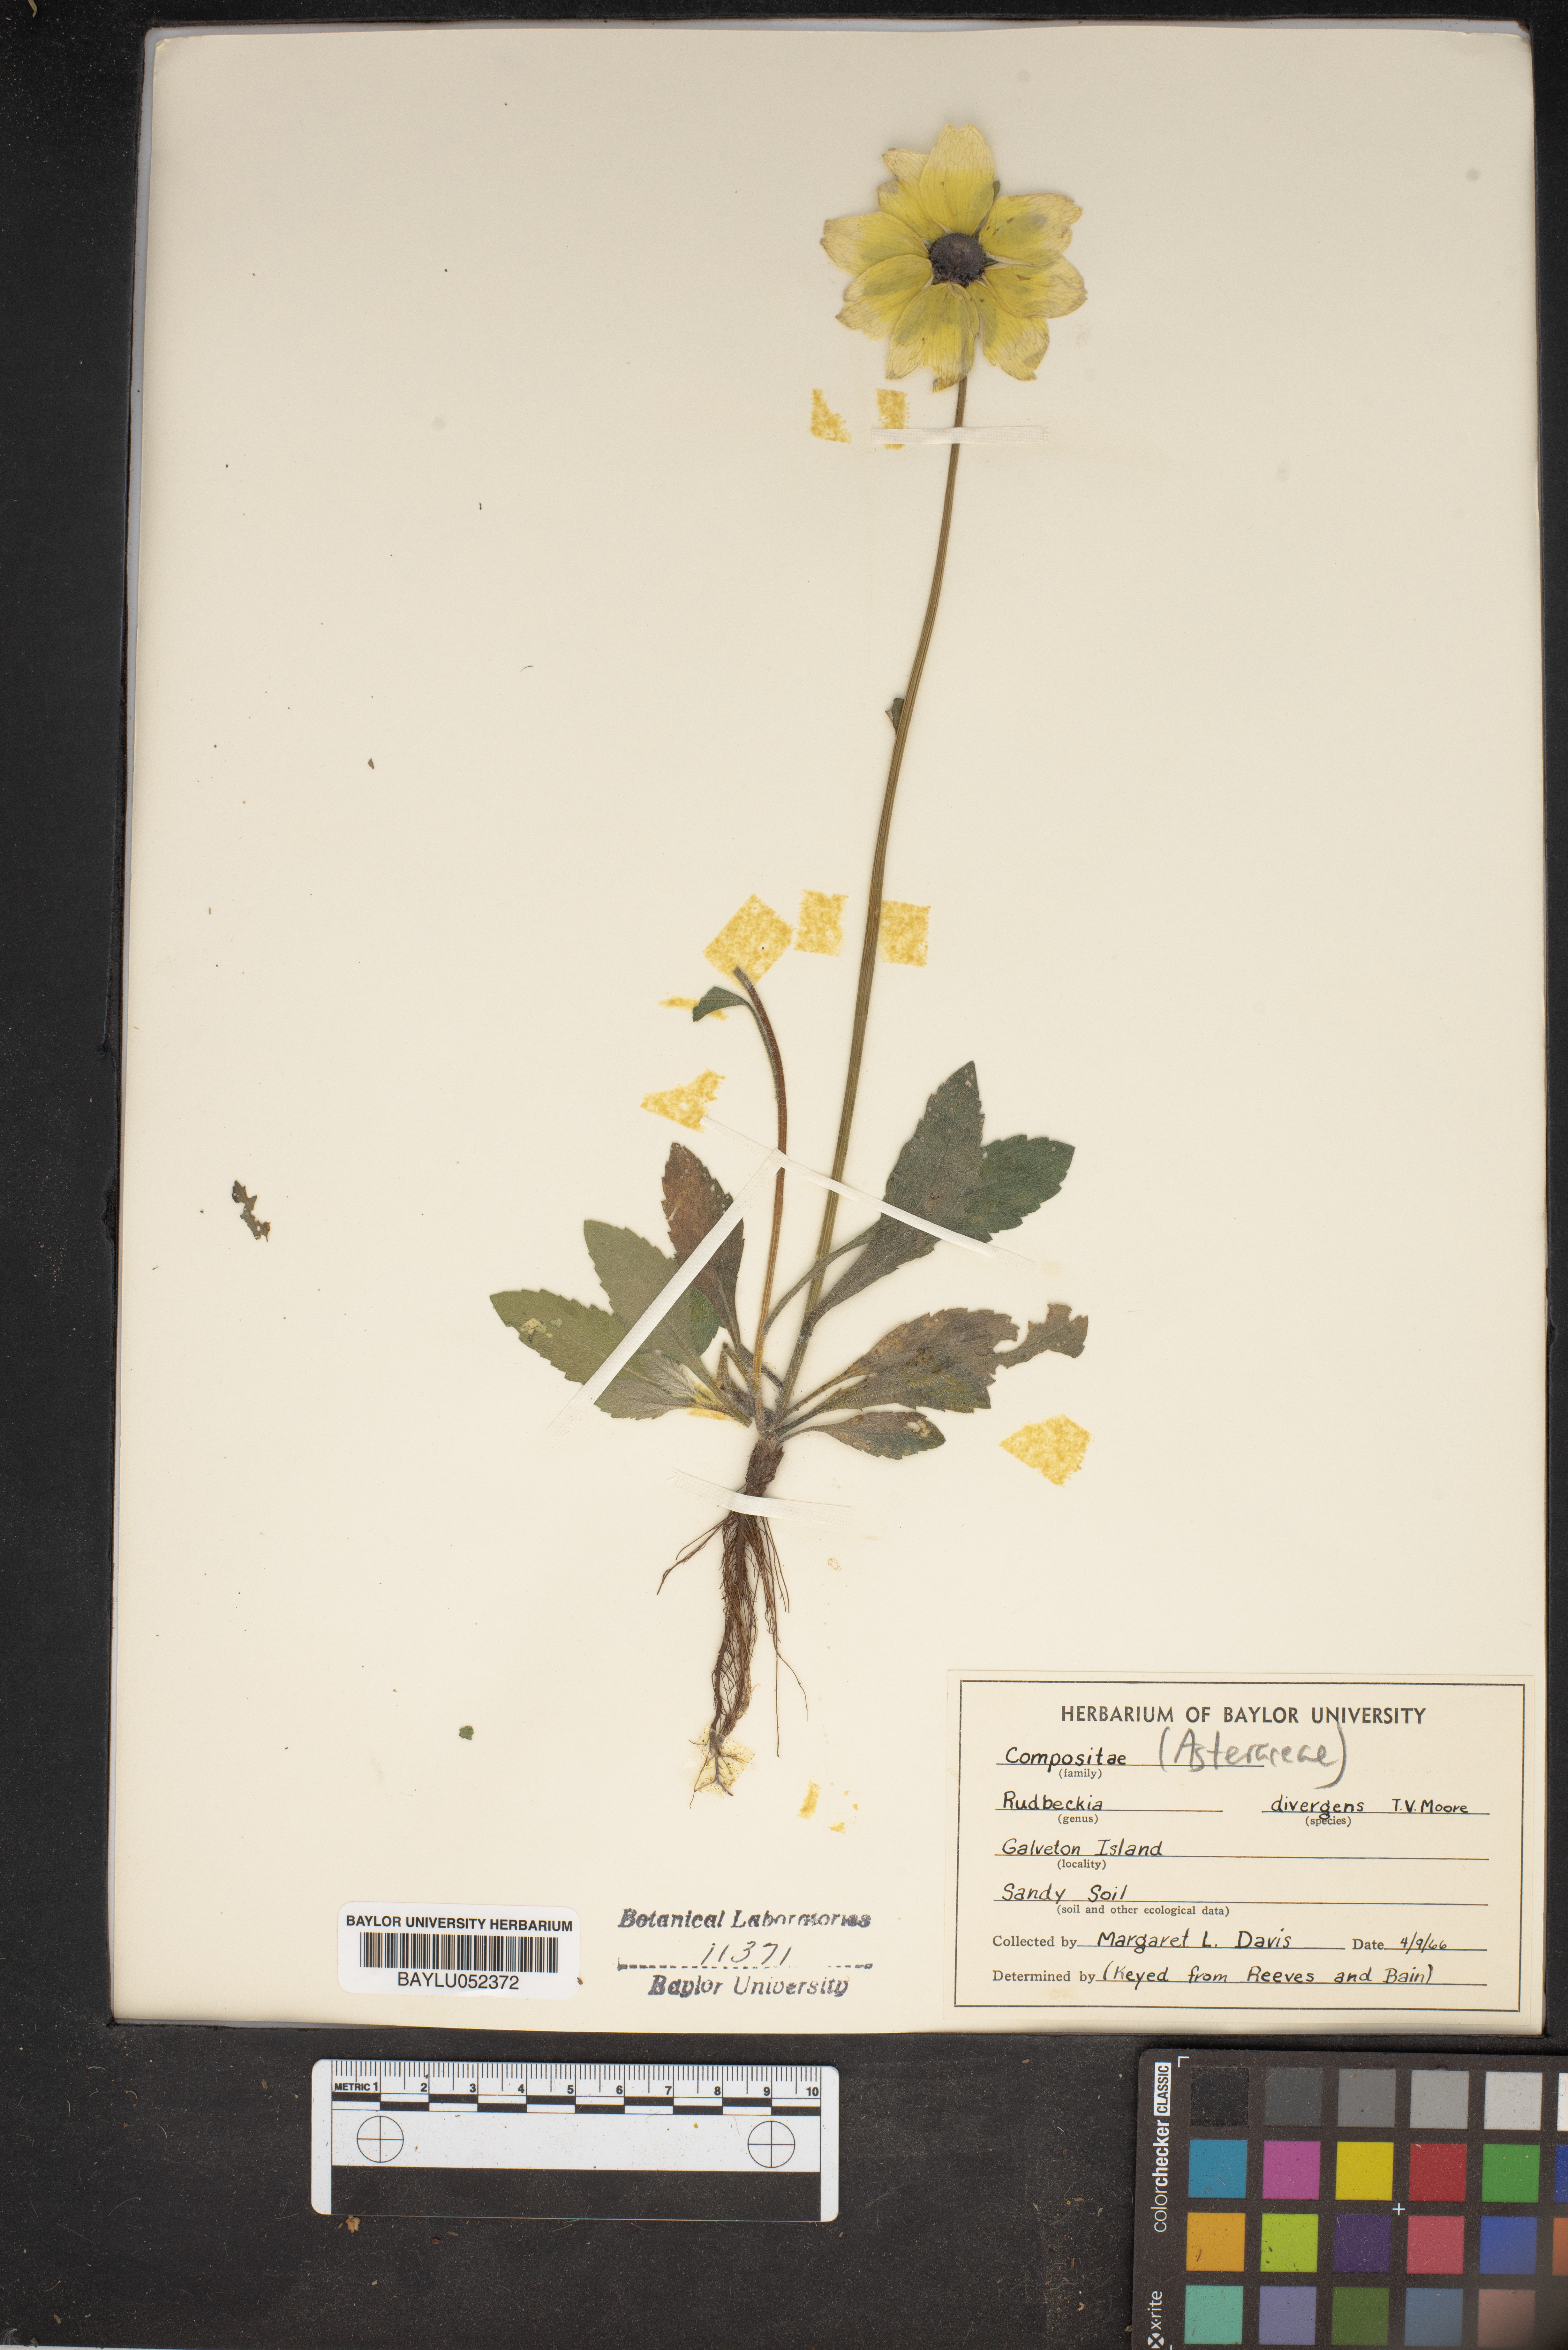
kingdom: Plantae
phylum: Tracheophyta
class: Magnoliopsida
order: Asterales
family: Asteraceae
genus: Rudbeckia
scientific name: Rudbeckia hirta
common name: Black-eyed-susan
